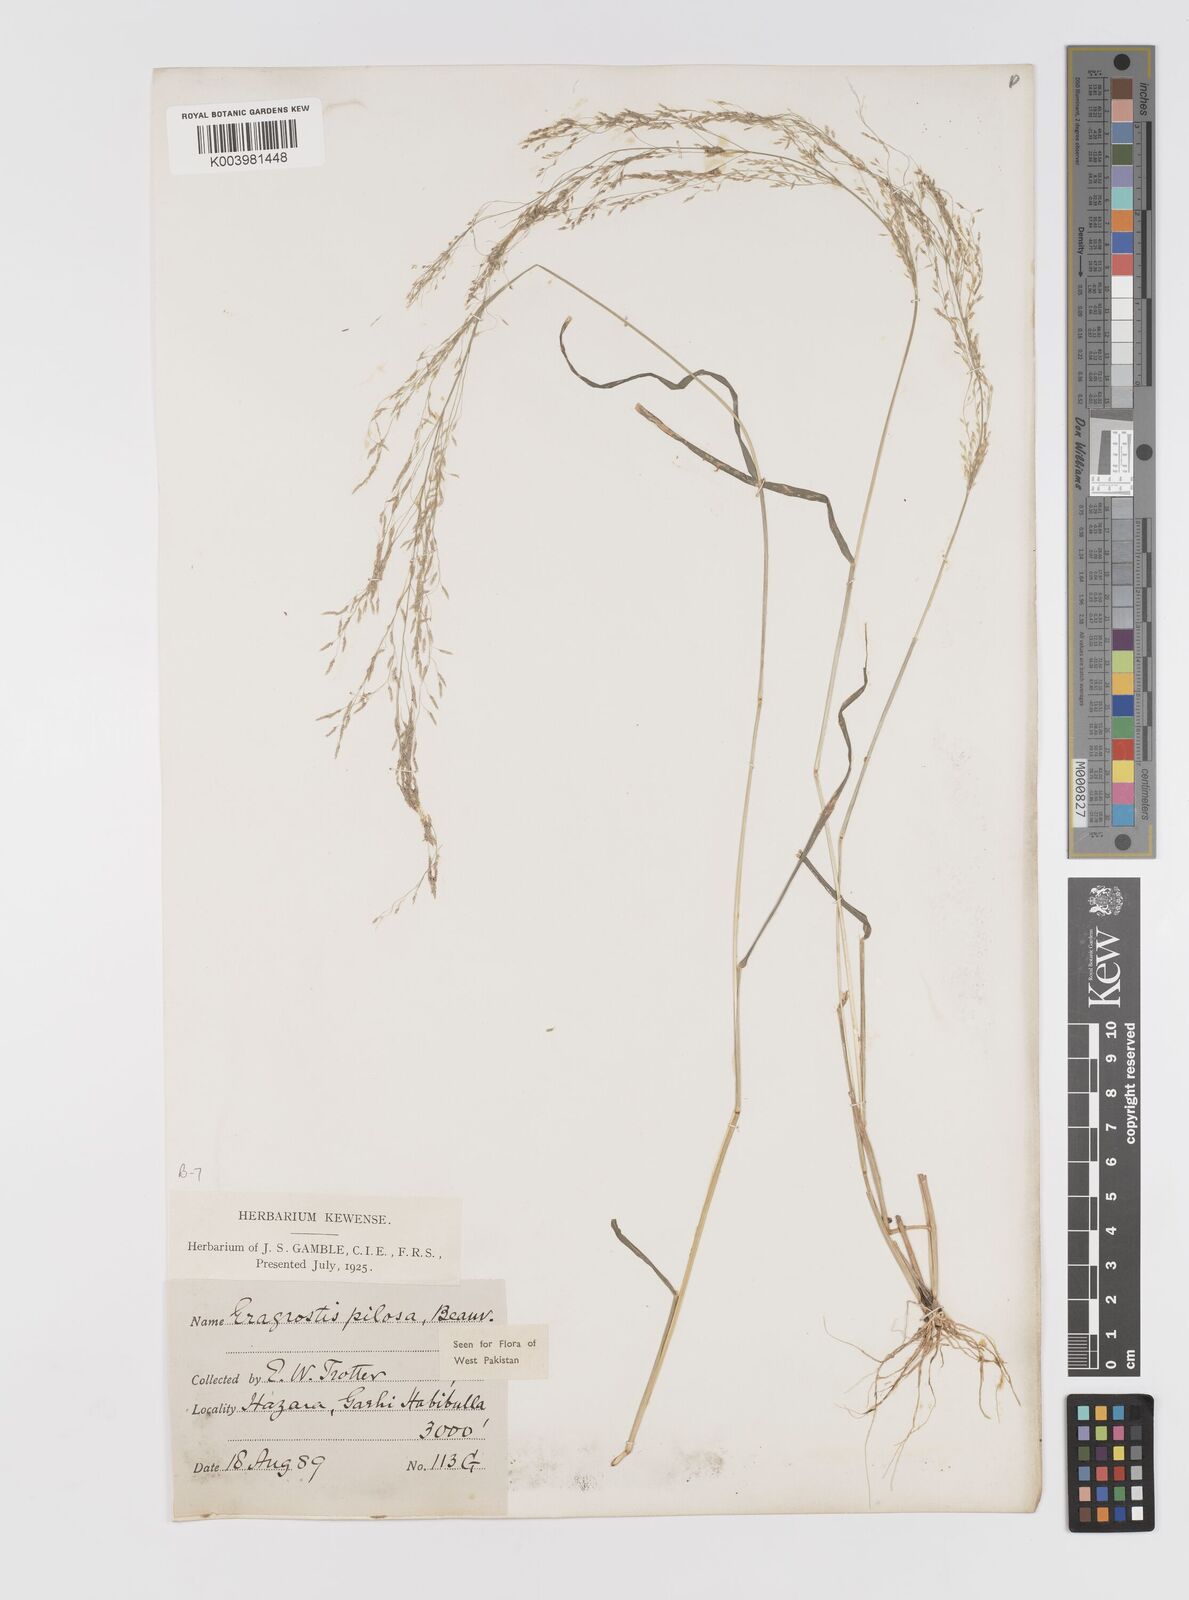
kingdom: Plantae
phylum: Tracheophyta
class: Liliopsida
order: Poales
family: Poaceae
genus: Eragrostis
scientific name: Eragrostis pilosa
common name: Indian lovegrass
